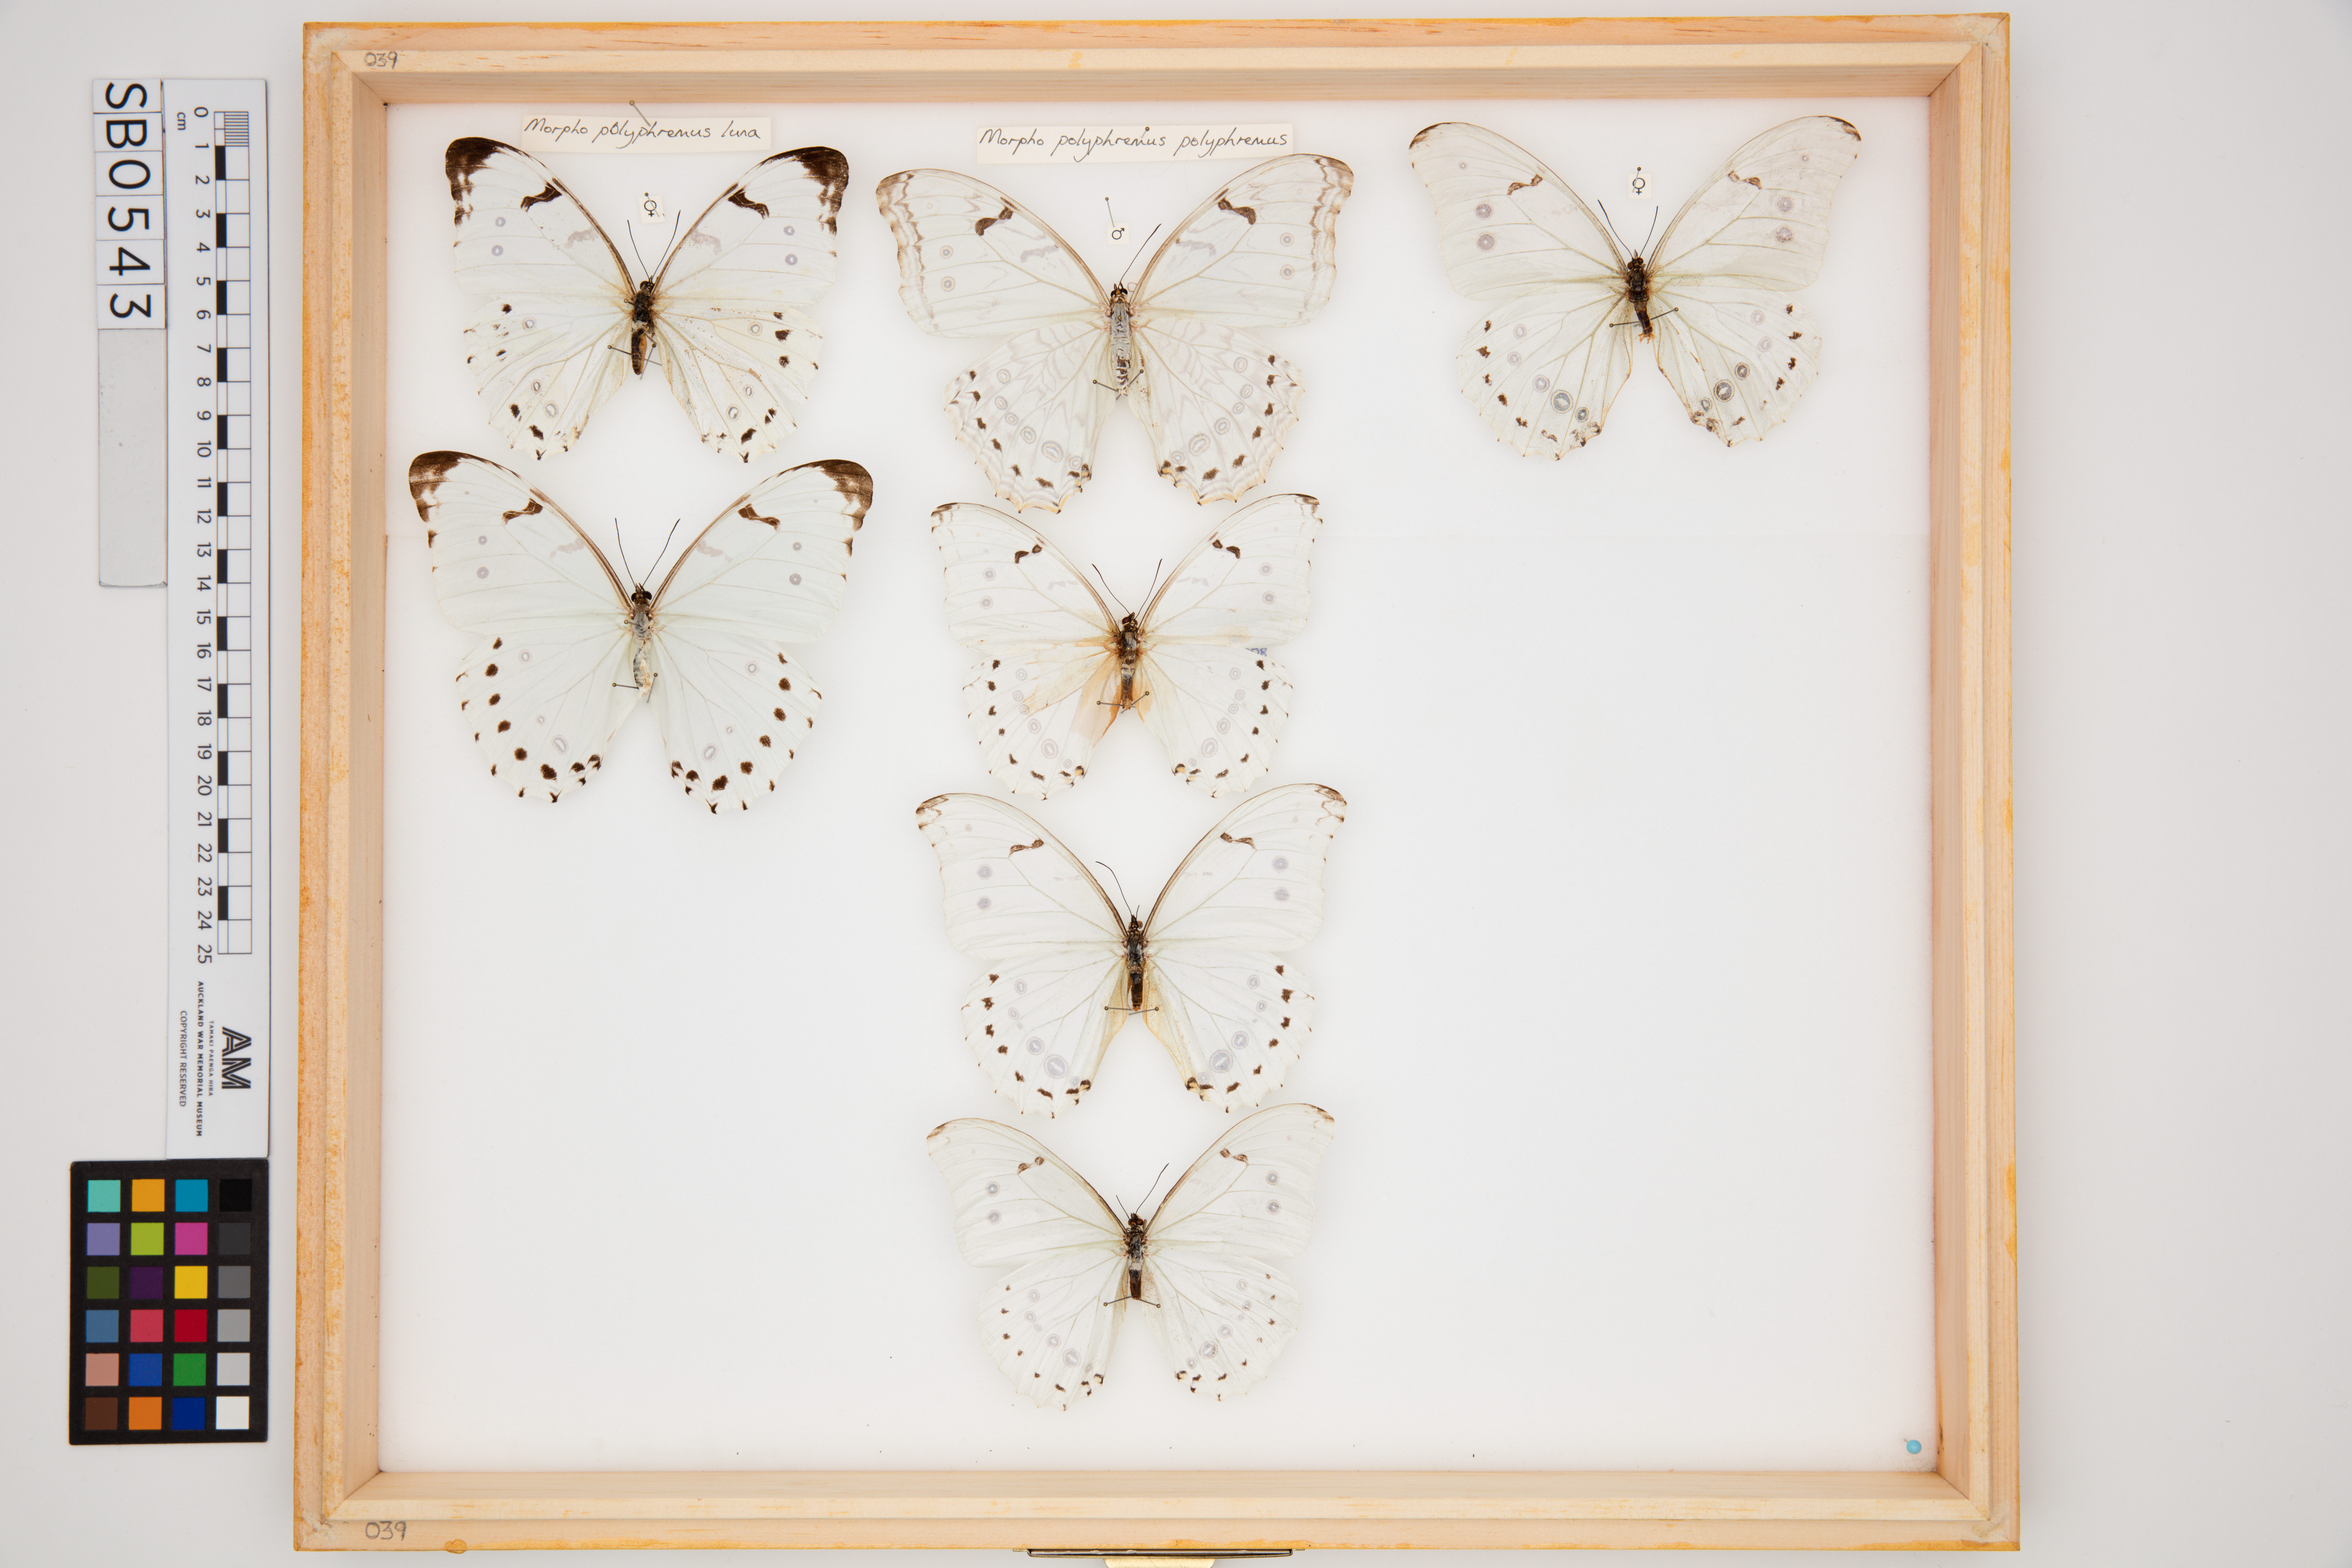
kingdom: Animalia
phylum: Arthropoda
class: Insecta
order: Lepidoptera
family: Nymphalidae
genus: Morpho
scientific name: Morpho polyphemus
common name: White morpho
